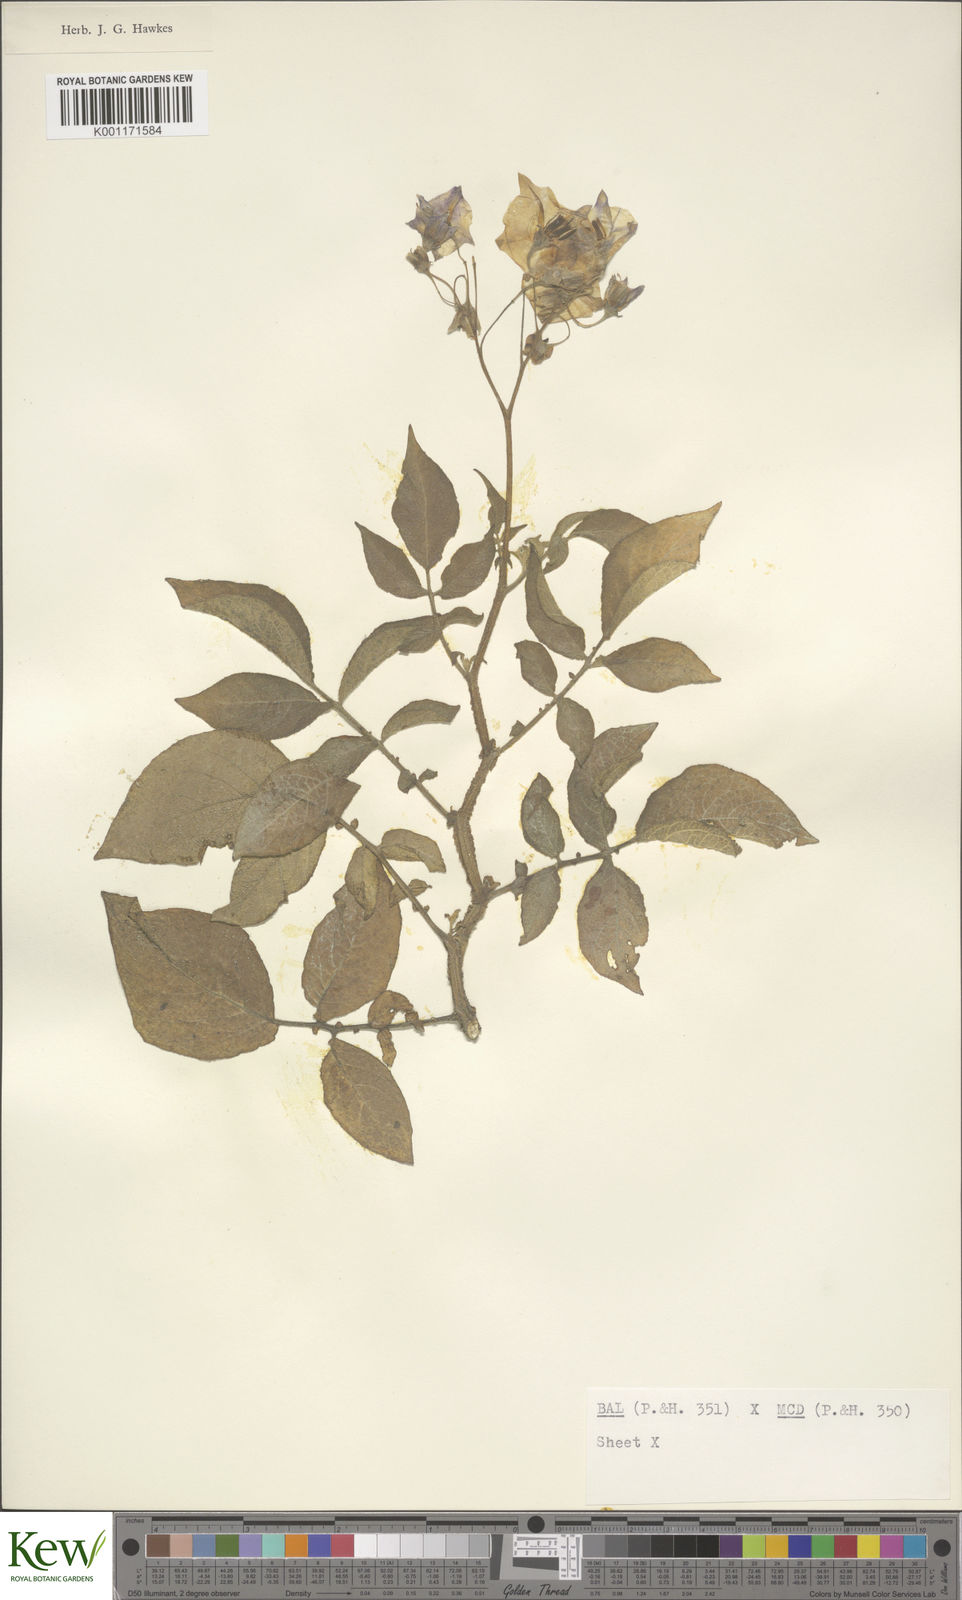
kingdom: Plantae
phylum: Tracheophyta
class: Magnoliopsida
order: Solanales
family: Solanaceae
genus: Solanum
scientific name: Solanum vernei
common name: Purple potato
